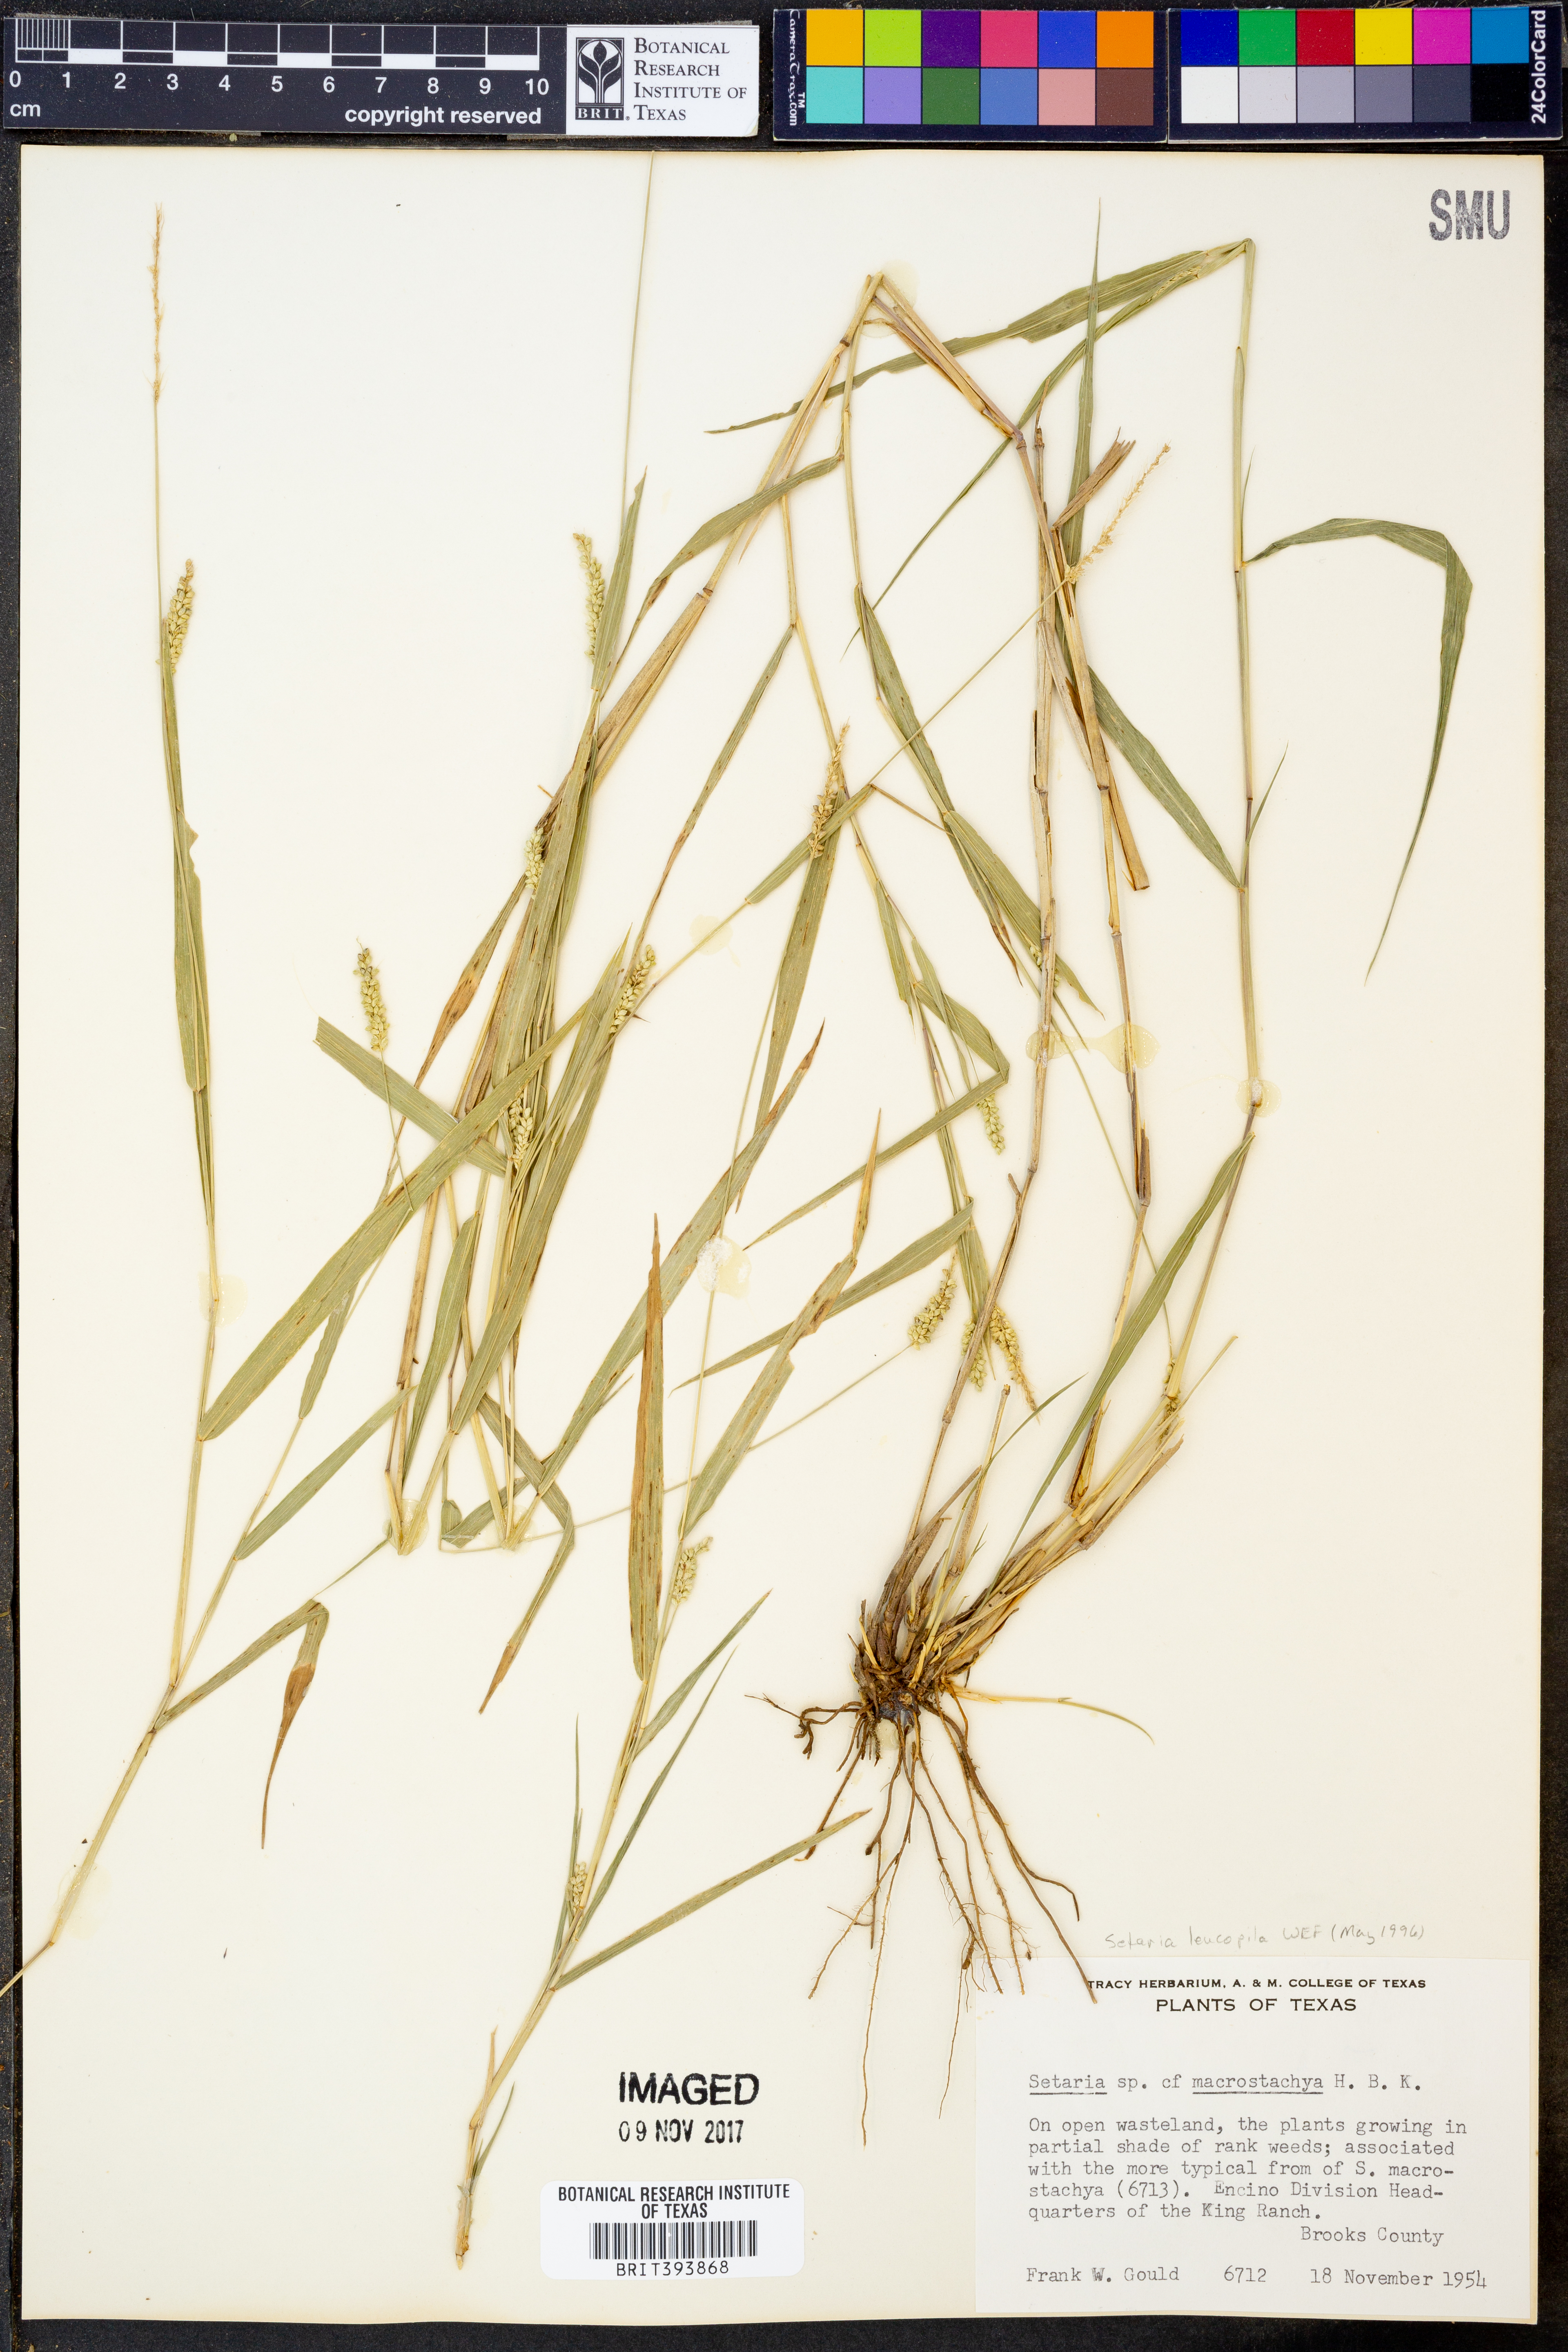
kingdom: Plantae
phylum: Tracheophyta
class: Liliopsida
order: Poales
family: Poaceae
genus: Setaria
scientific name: Setaria macrostachya
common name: Plains bristle grass
